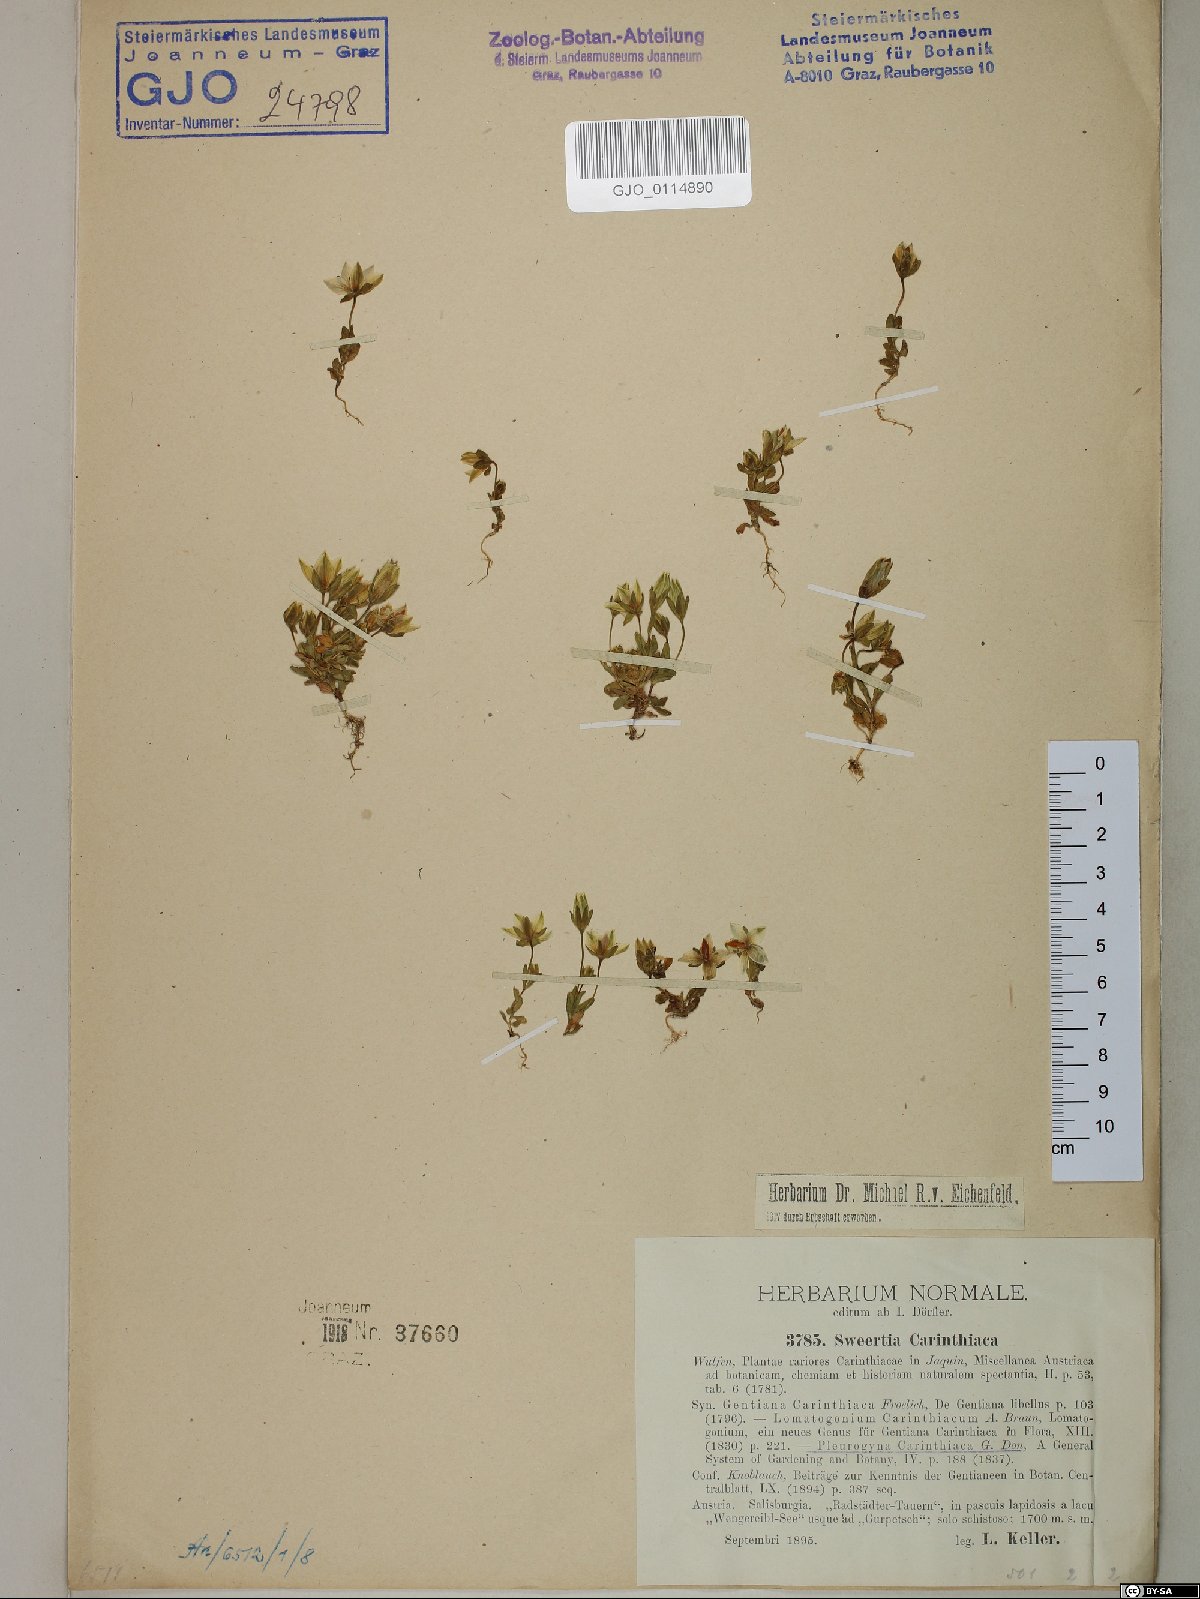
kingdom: Plantae
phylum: Tracheophyta
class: Magnoliopsida
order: Gentianales
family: Gentianaceae
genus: Lomatogonium
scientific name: Lomatogonium carinthiacum
